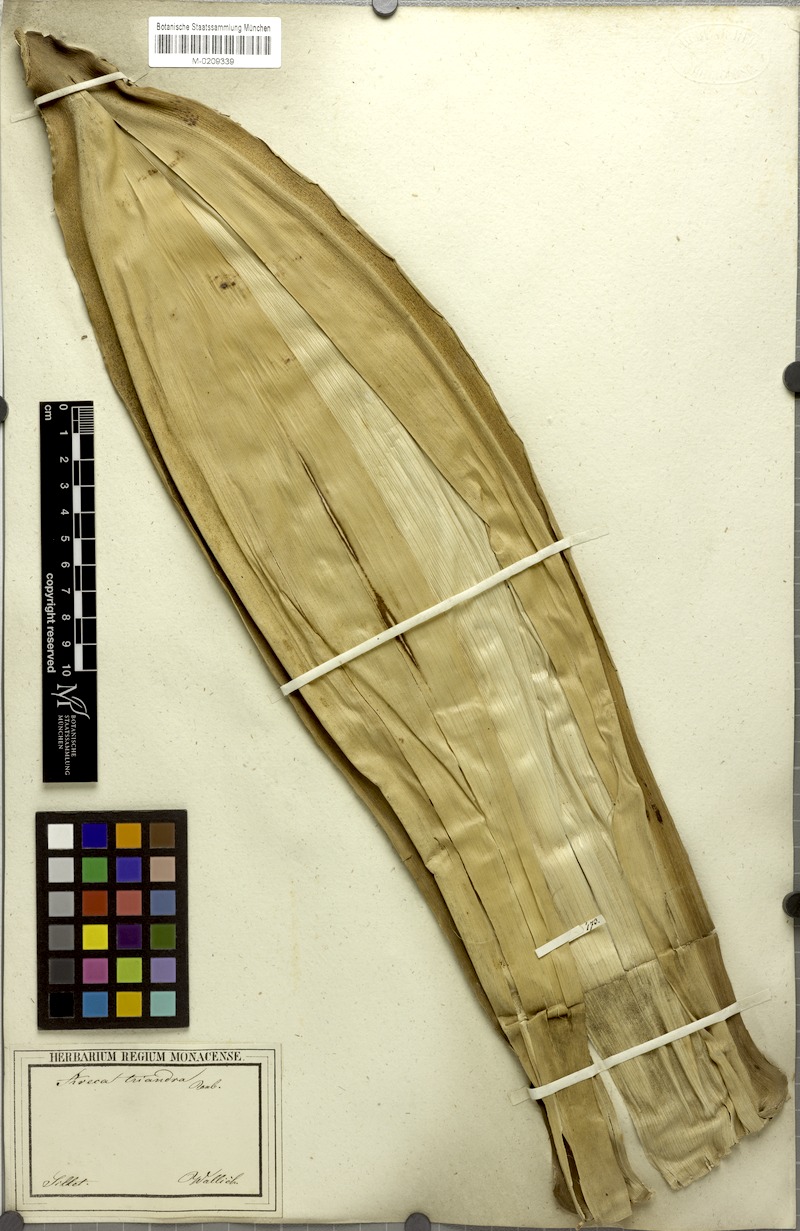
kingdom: Plantae
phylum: Tracheophyta
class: Liliopsida
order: Arecales
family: Arecaceae
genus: Areca
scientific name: Areca triandra
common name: Australian areca palm
